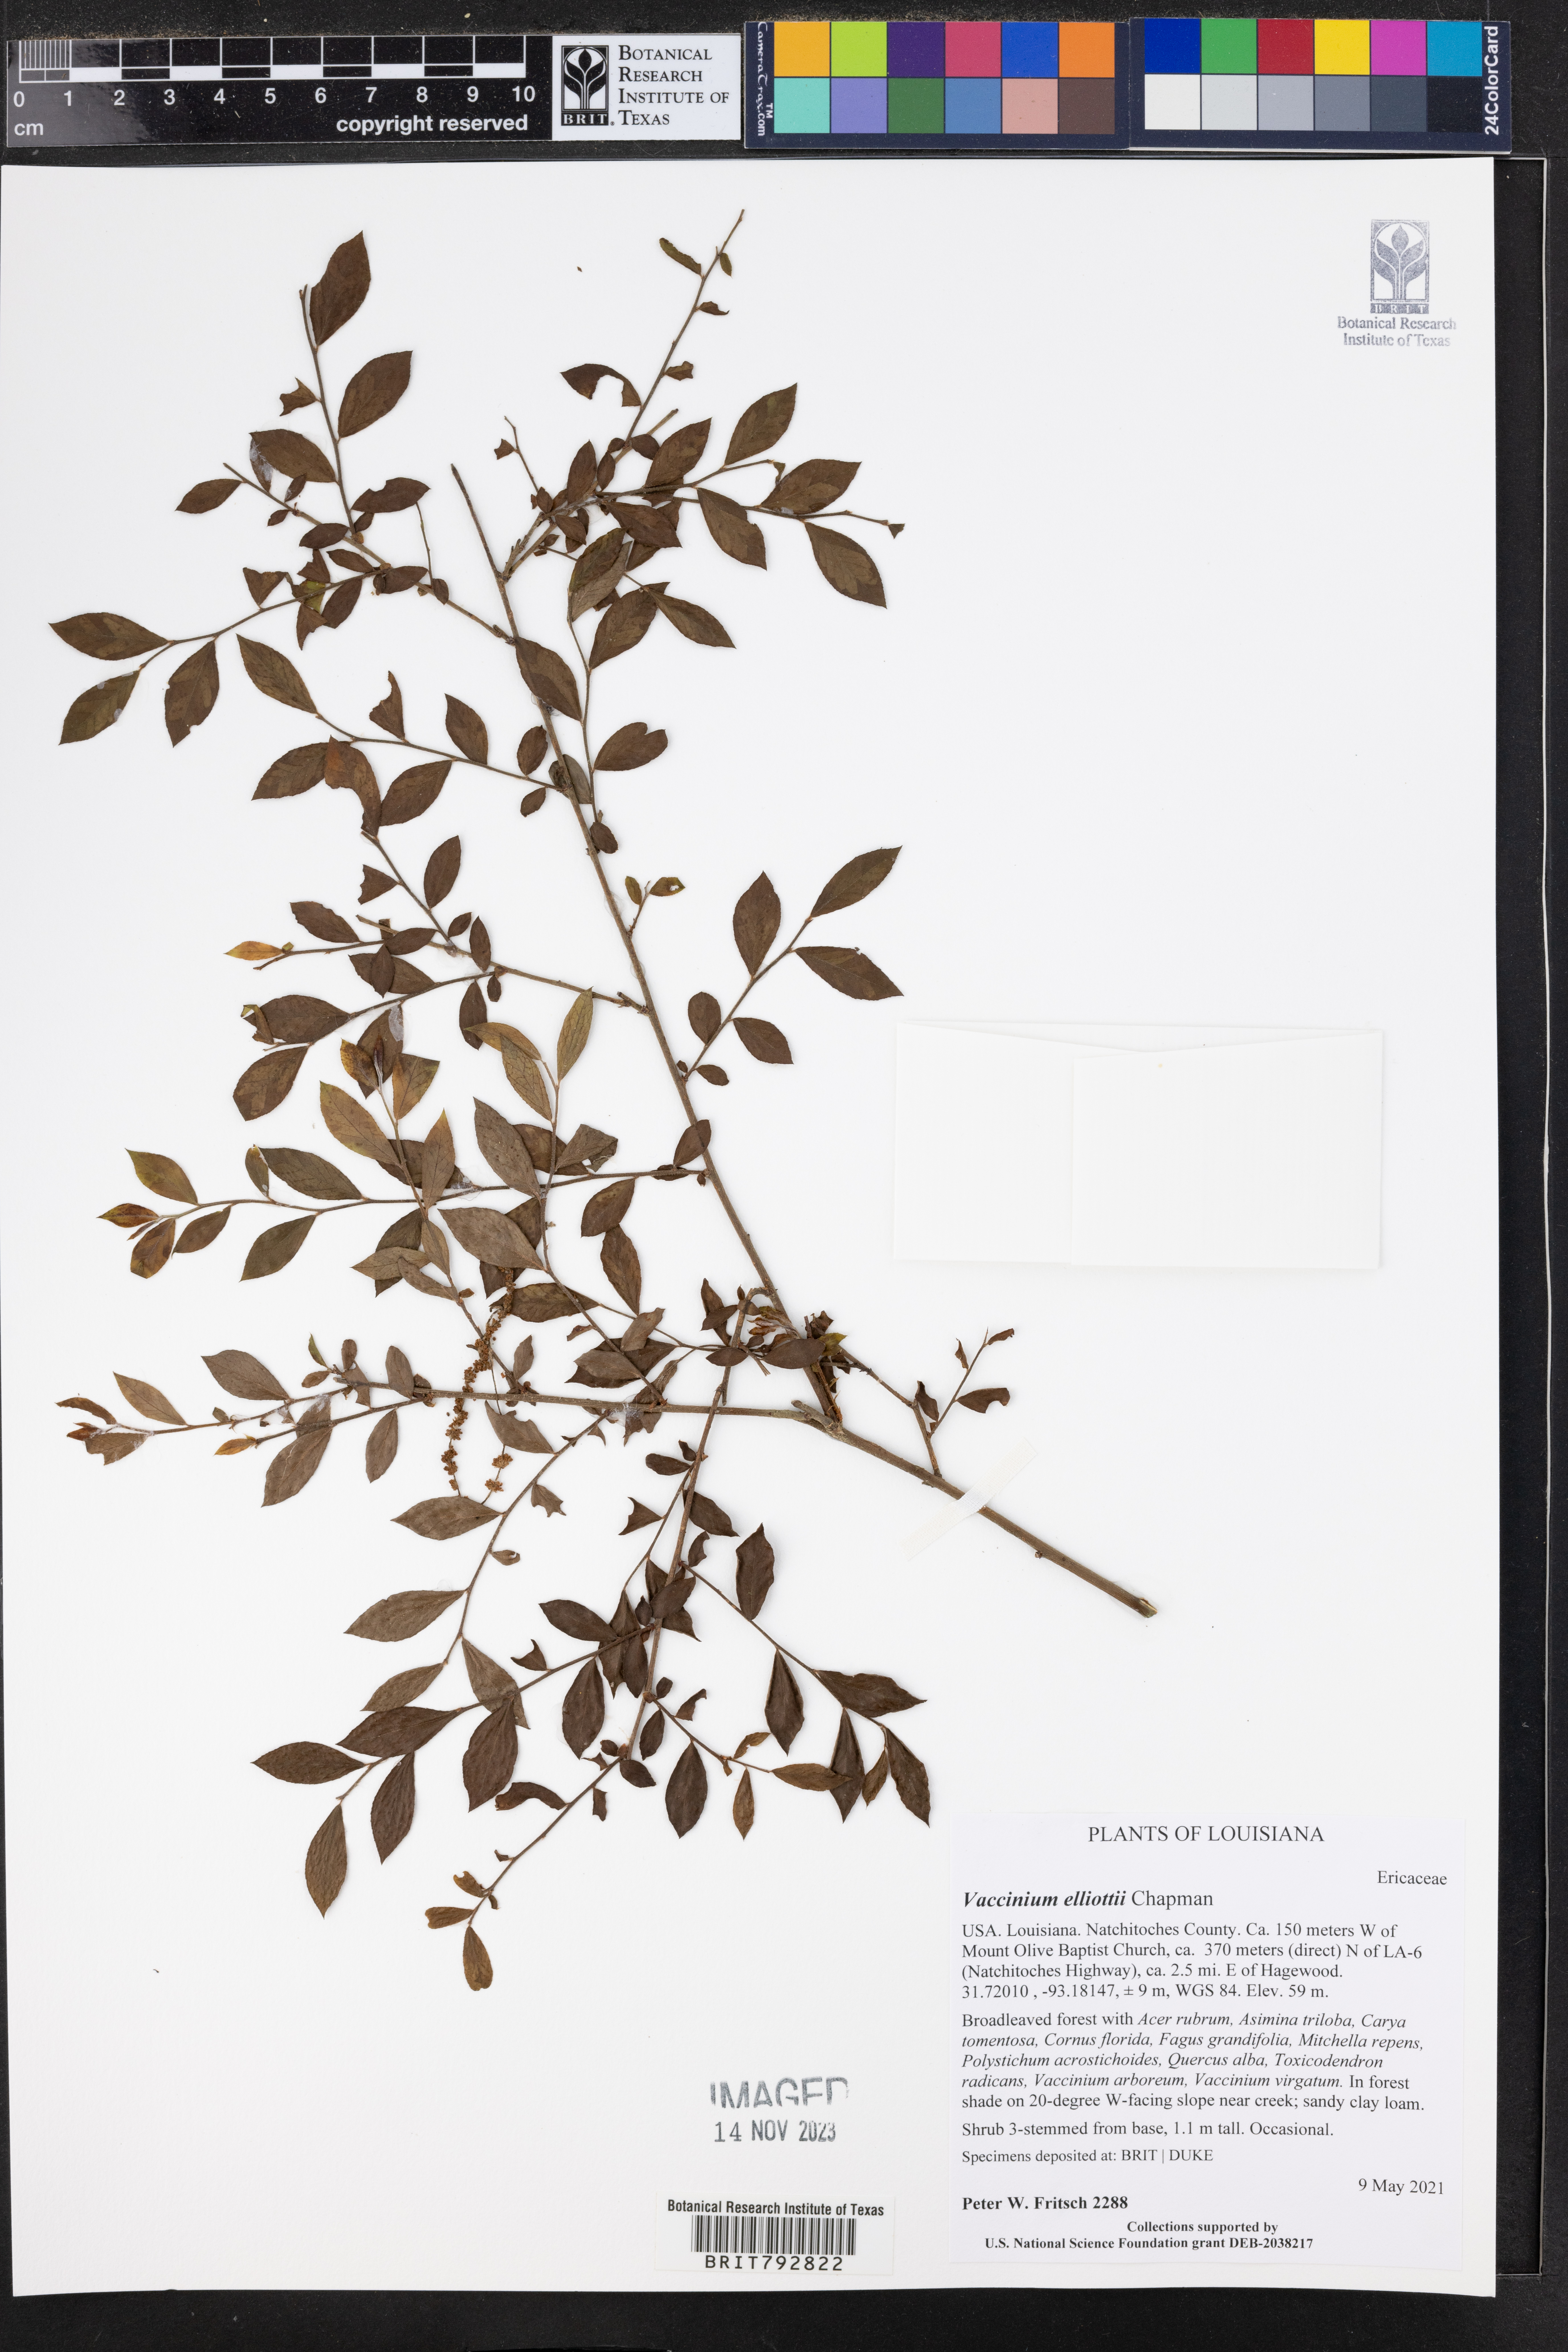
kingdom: Plantae
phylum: Tracheophyta
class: Magnoliopsida
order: Ericales
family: Ericaceae
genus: Vaccinium
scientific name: Vaccinium corymbosum
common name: Blueberry
